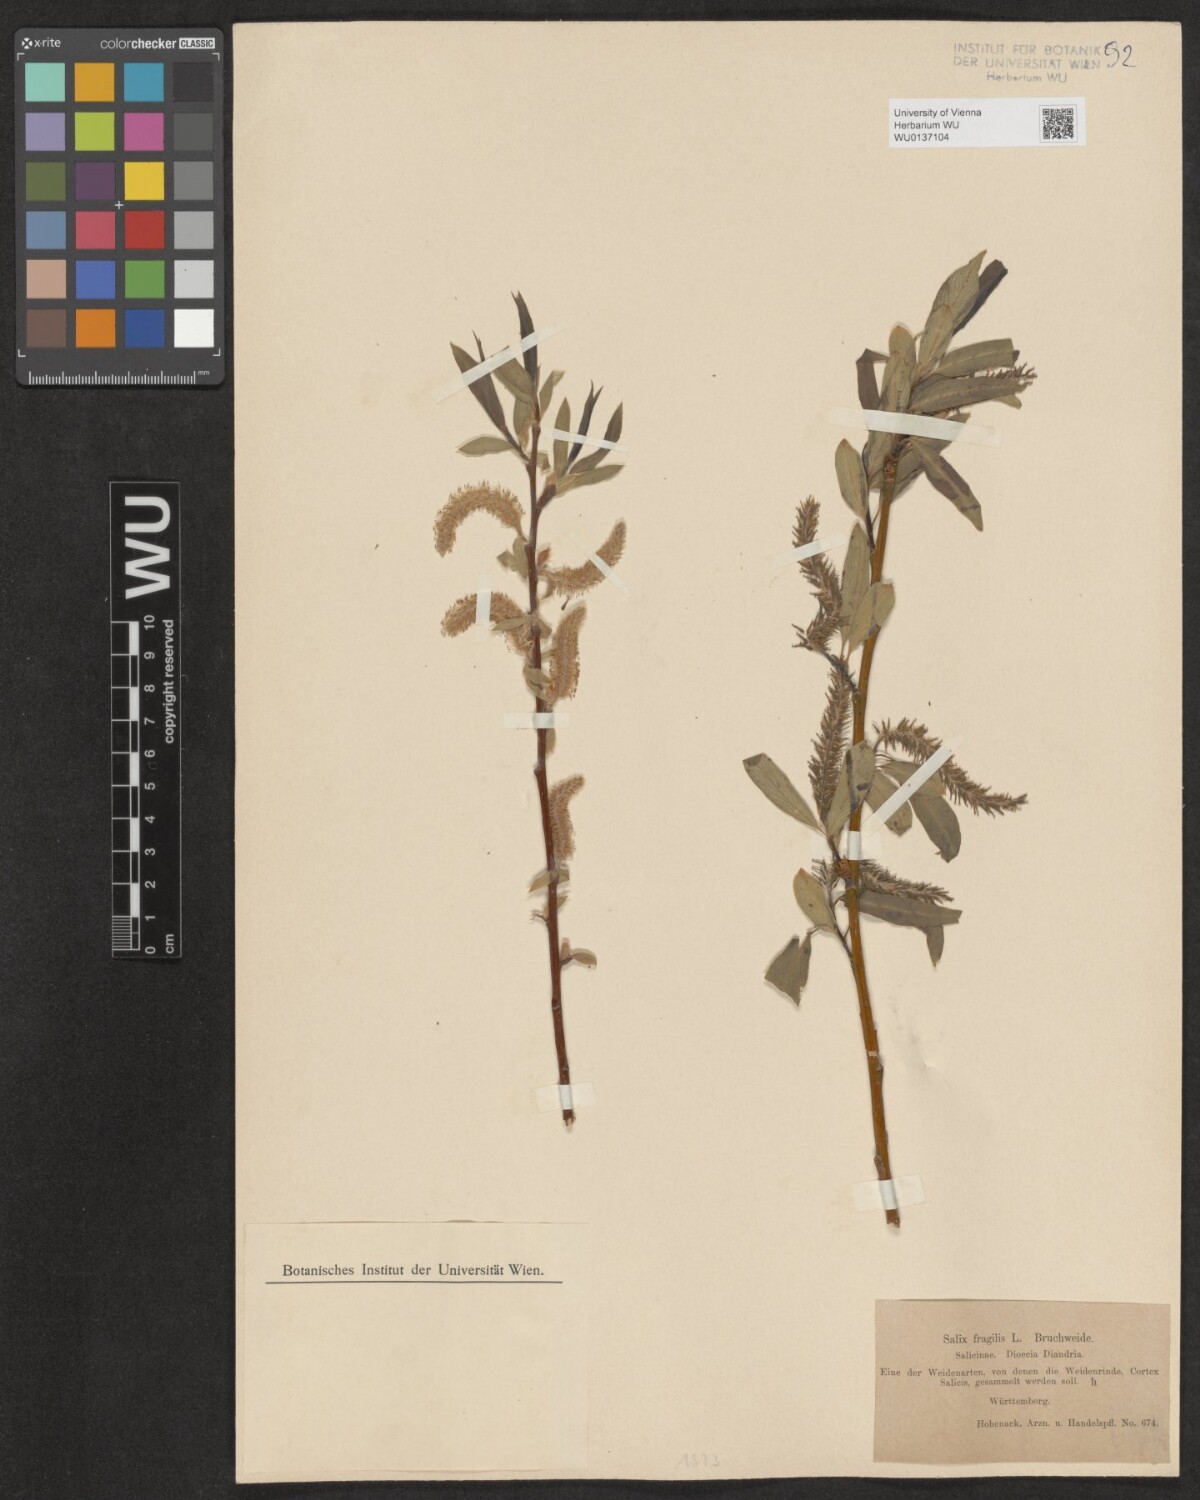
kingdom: Plantae
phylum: Tracheophyta
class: Magnoliopsida
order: Malpighiales
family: Salicaceae
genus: Salix
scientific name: Salix fragilis
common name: Crack willow
